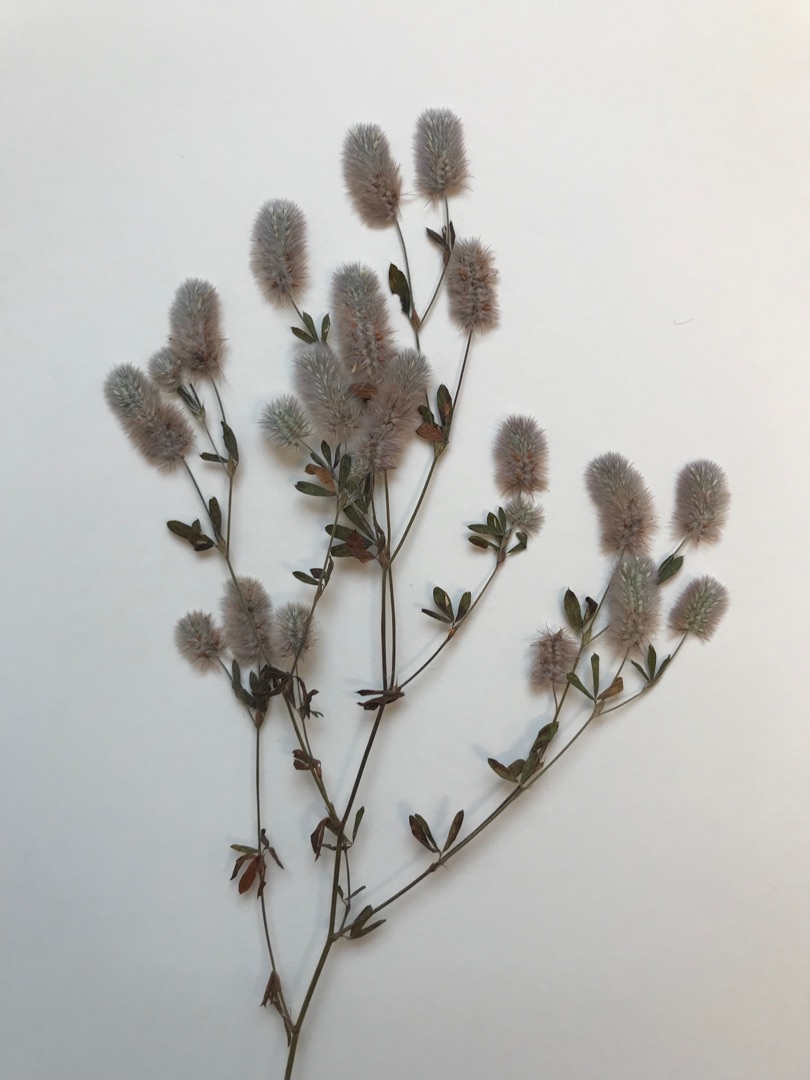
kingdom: Plantae
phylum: Tracheophyta
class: Magnoliopsida
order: Fabales
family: Fabaceae
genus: Trifolium
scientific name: Trifolium arvense
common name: Hare-kløver
